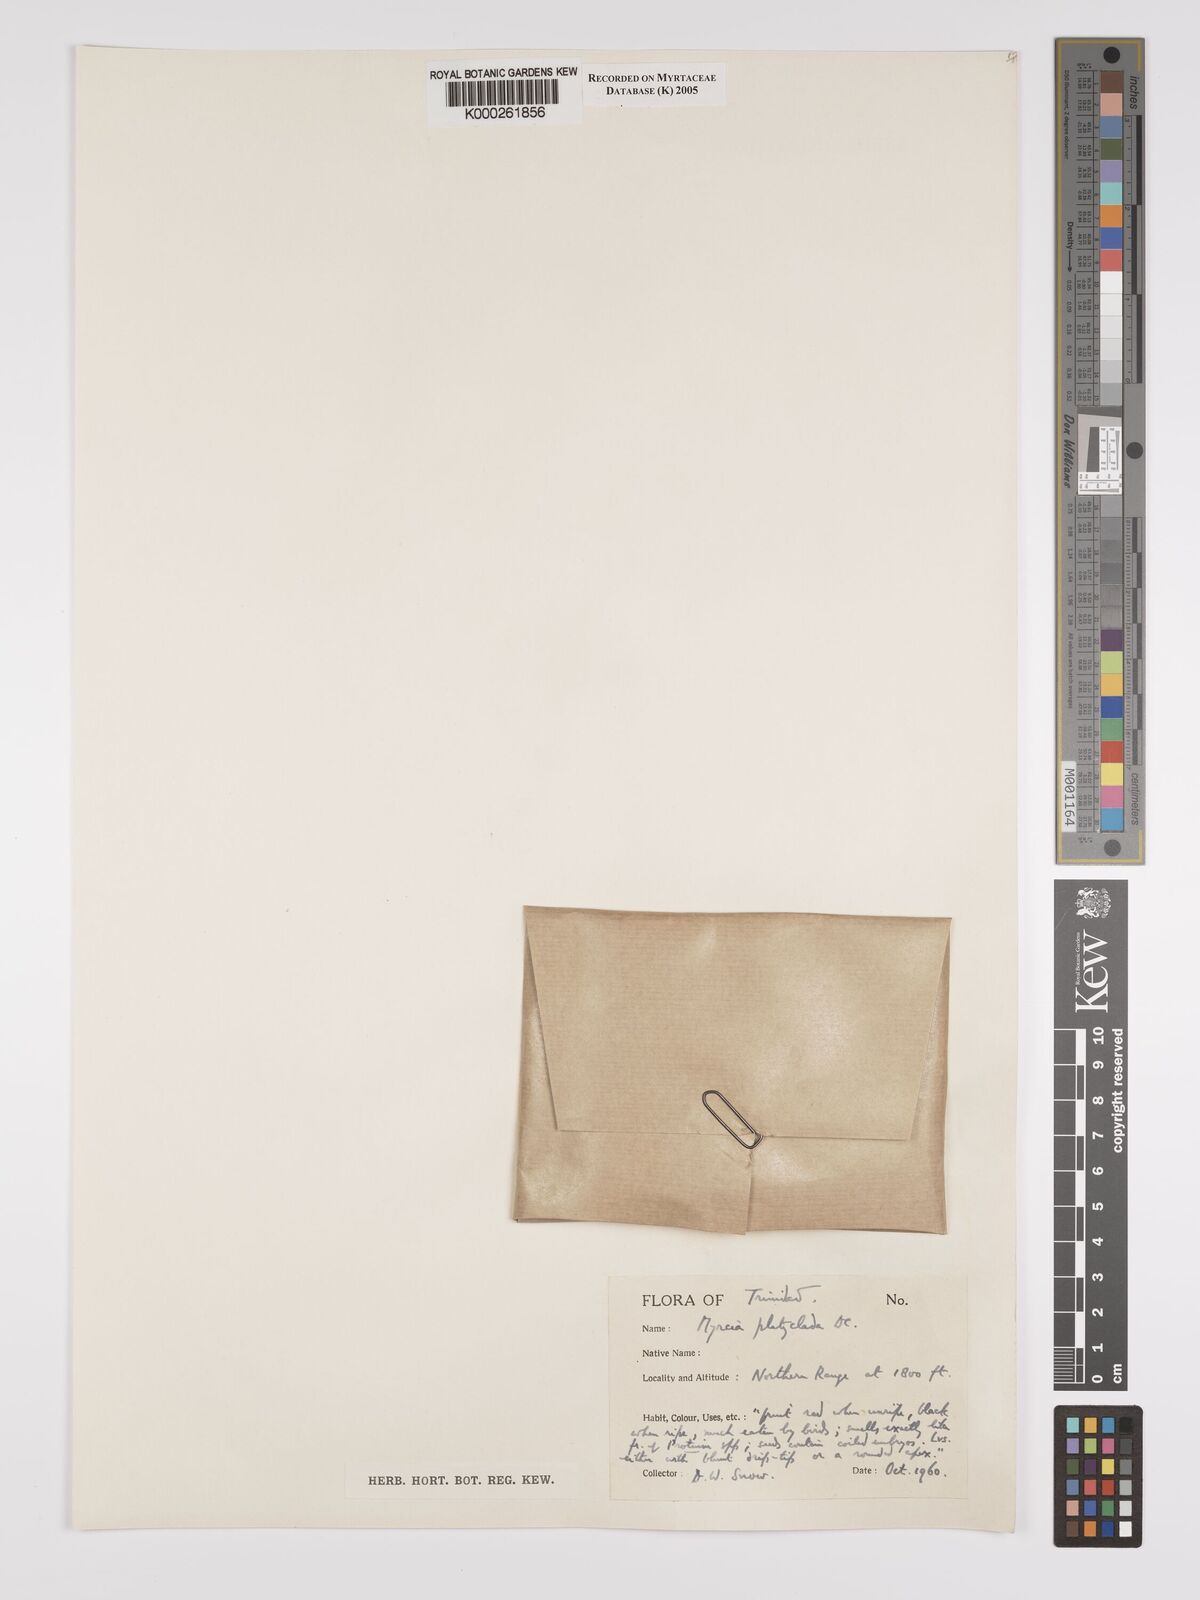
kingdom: Plantae
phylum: Tracheophyta
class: Magnoliopsida
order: Myrtales
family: Myrtaceae
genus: Myrcia
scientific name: Myrcia platyclada
